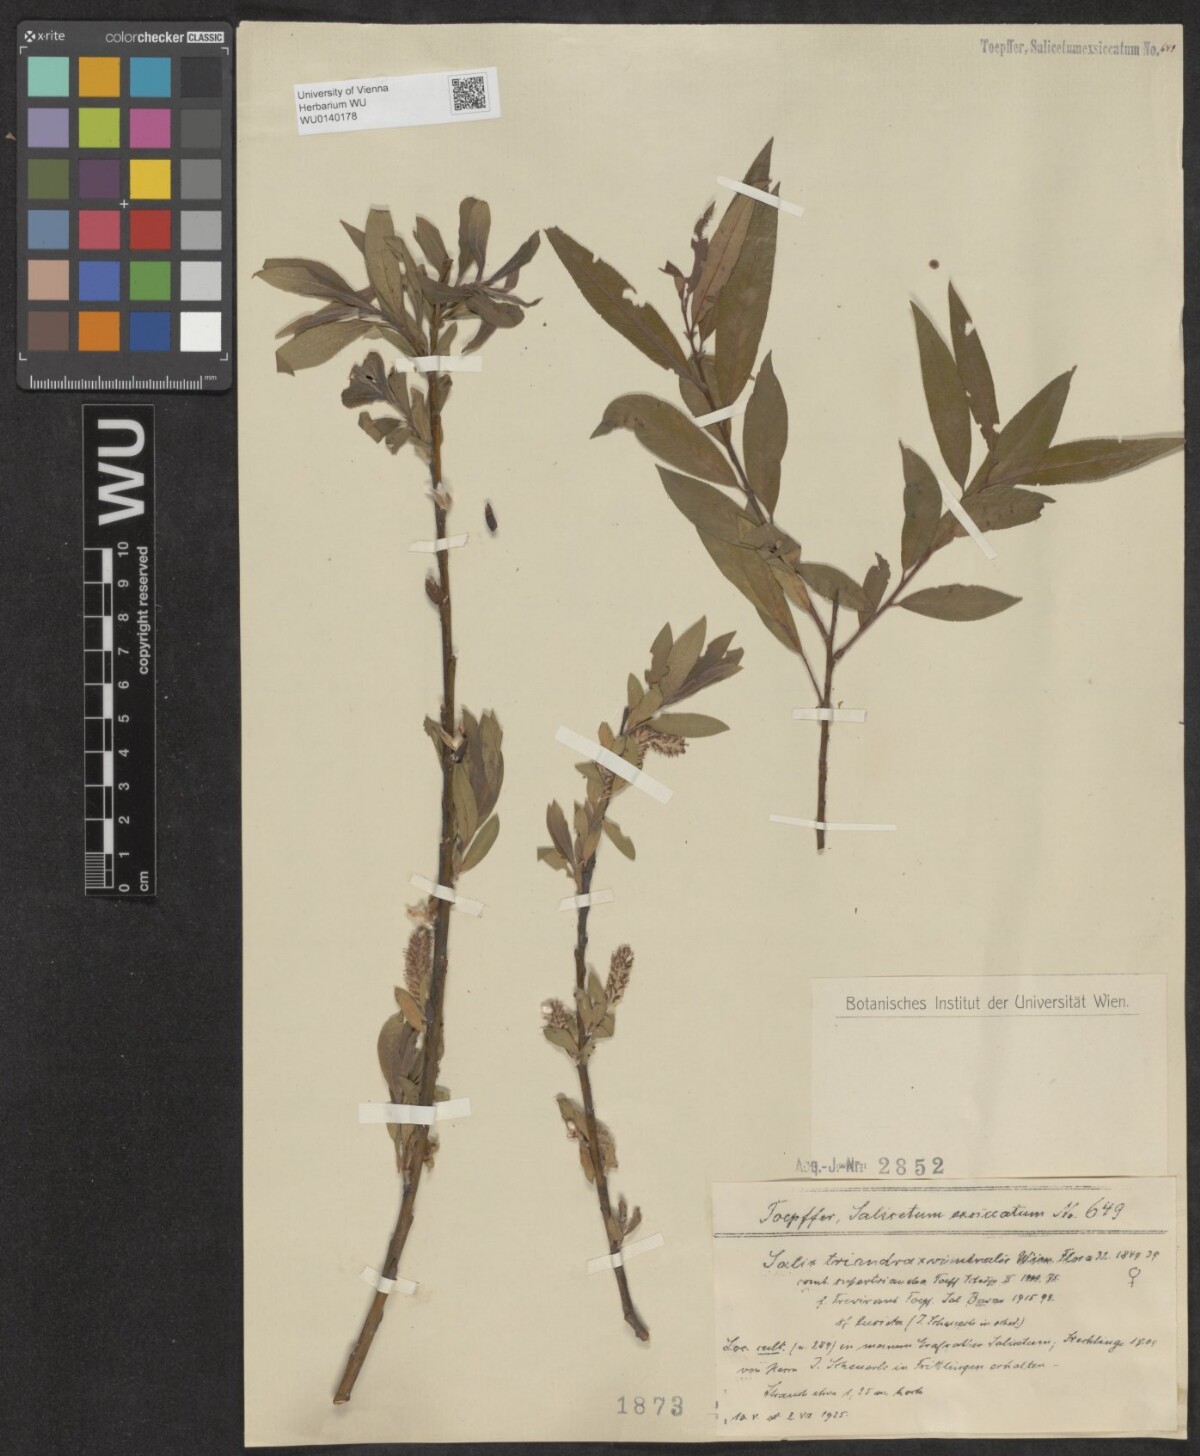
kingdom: Plantae
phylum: Tracheophyta
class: Magnoliopsida
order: Malpighiales
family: Salicaceae
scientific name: Salicaceae
